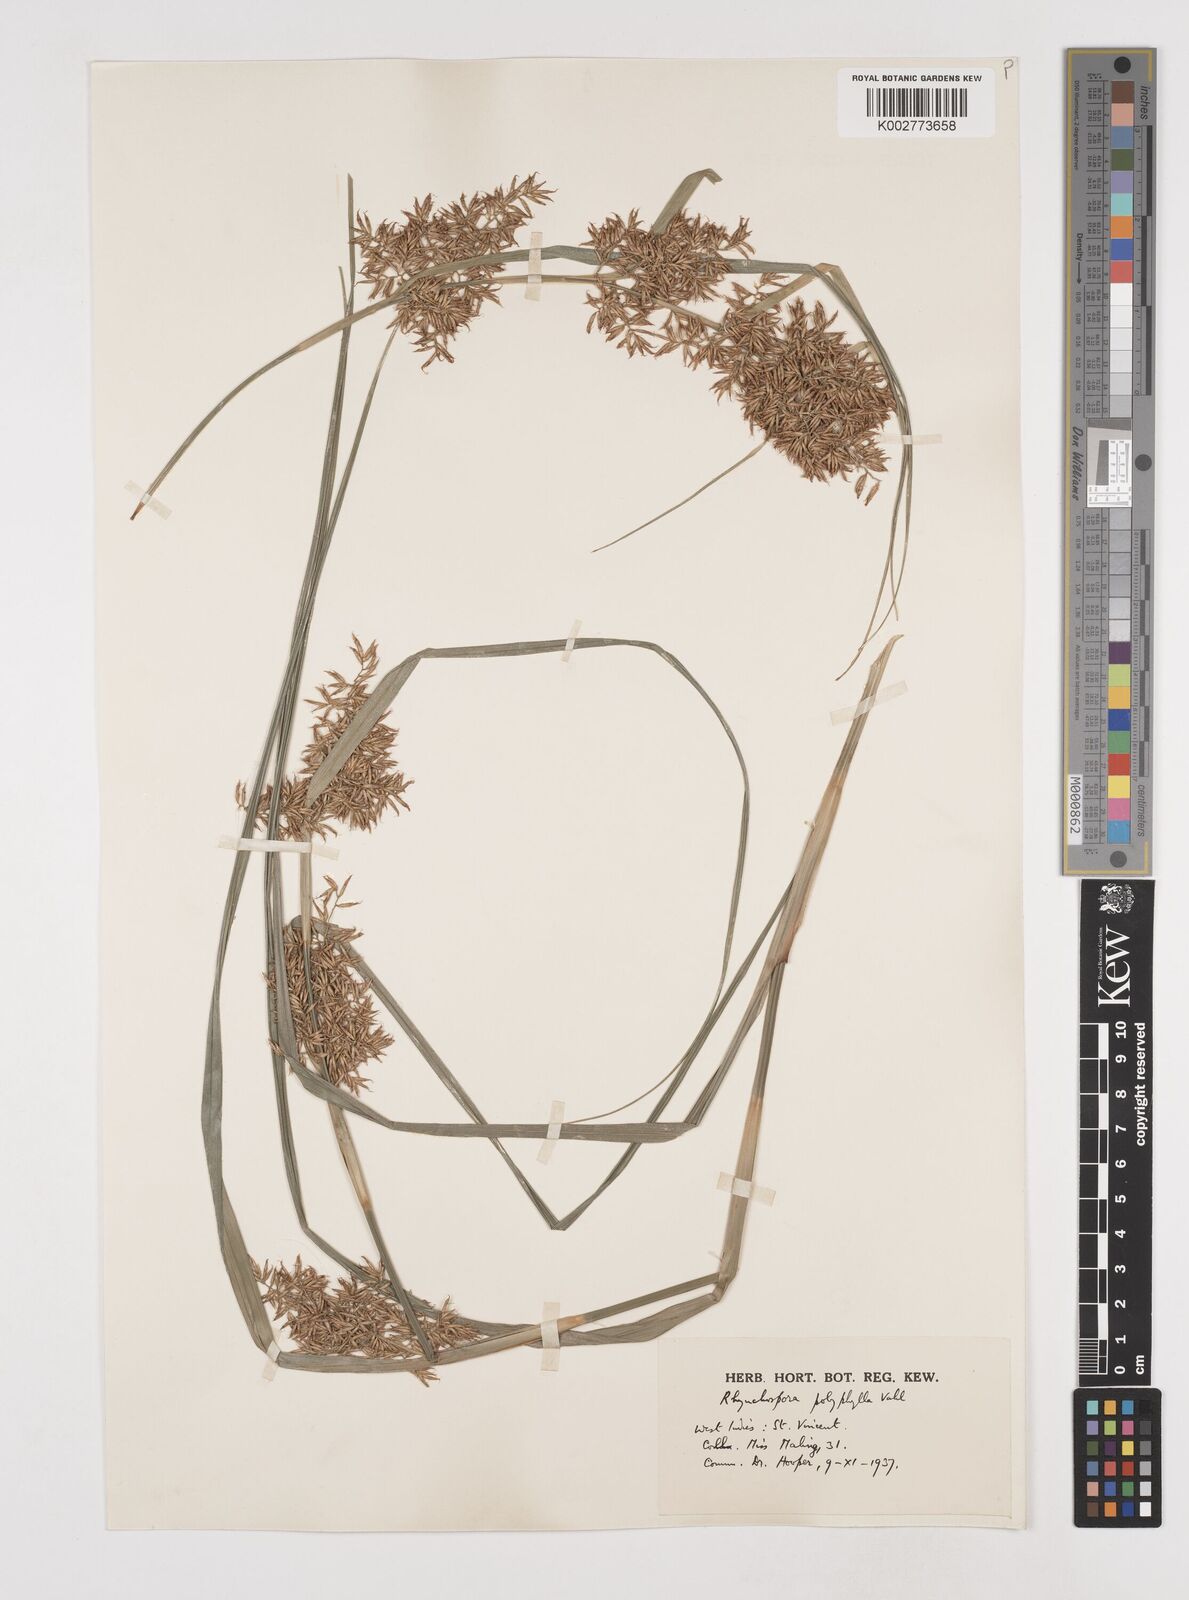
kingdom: Plantae
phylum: Tracheophyta
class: Liliopsida
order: Poales
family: Cyperaceae
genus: Rhynchospora
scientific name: Rhynchospora polyphylla
